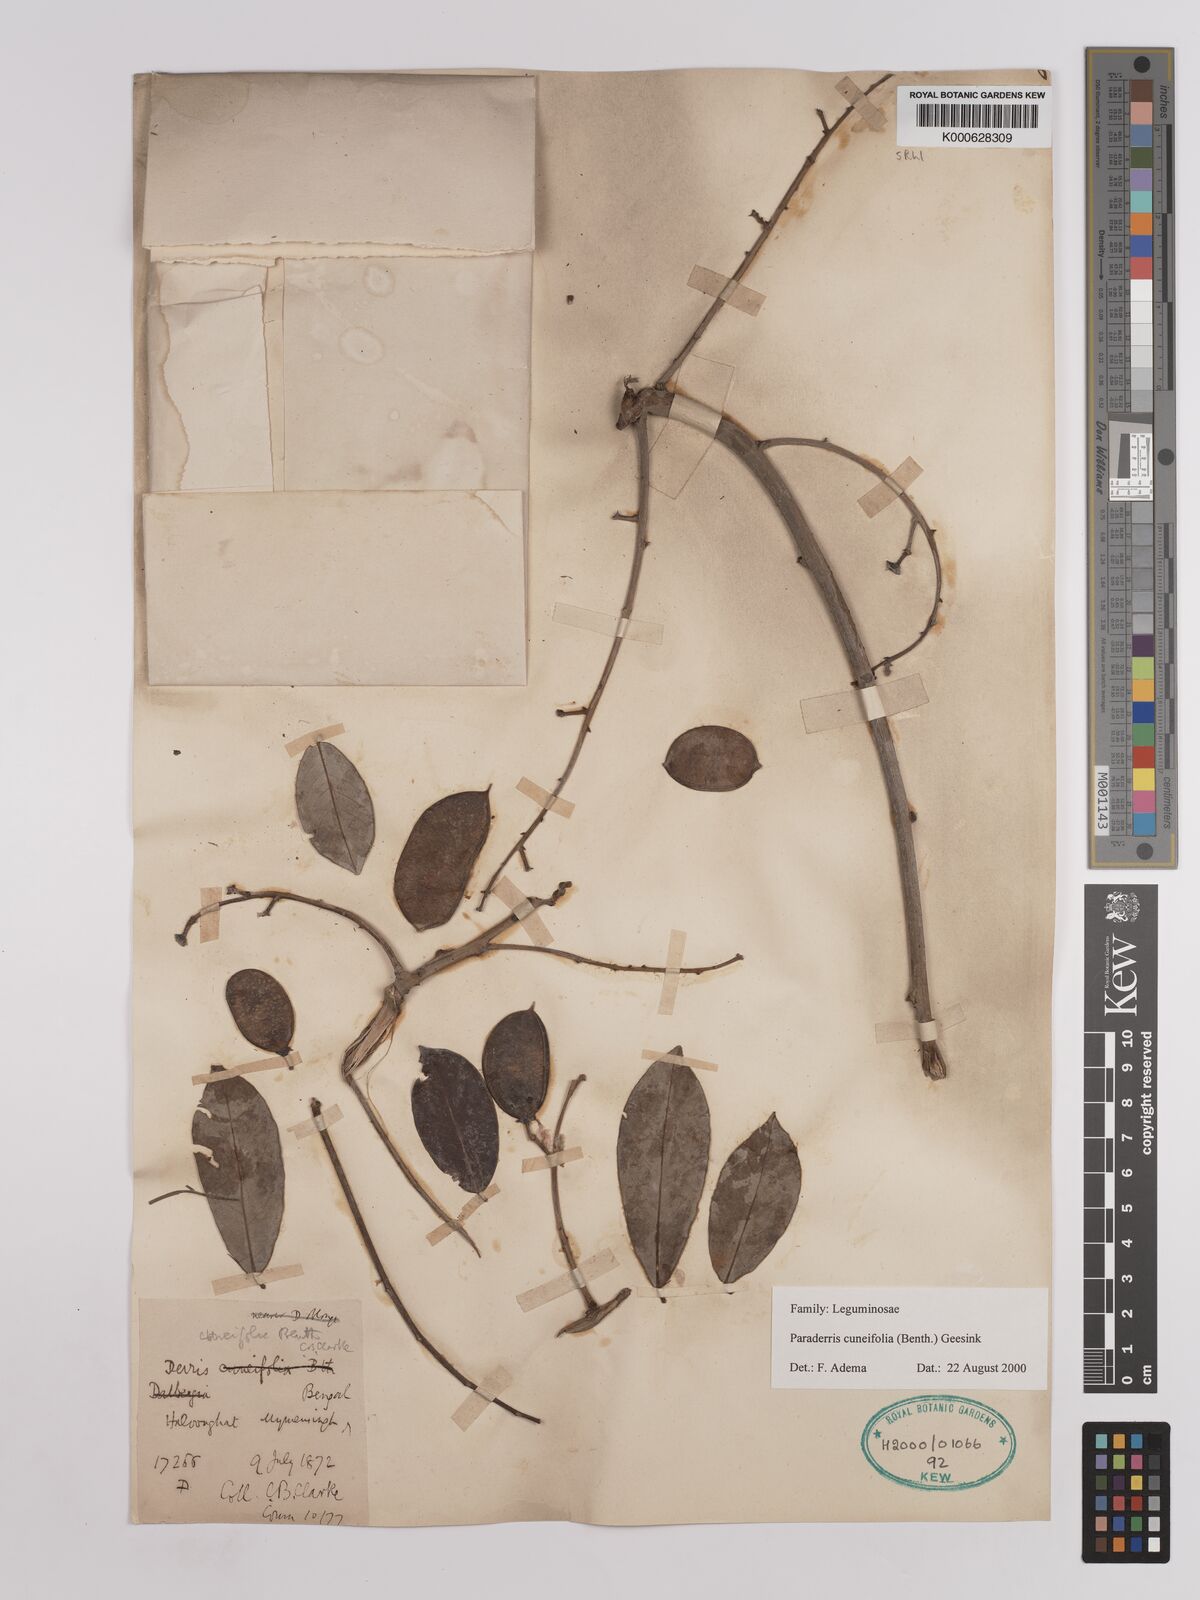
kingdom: Plantae
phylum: Tracheophyta
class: Magnoliopsida
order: Fabales
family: Fabaceae
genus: Derris
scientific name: Derris cuneifolia
